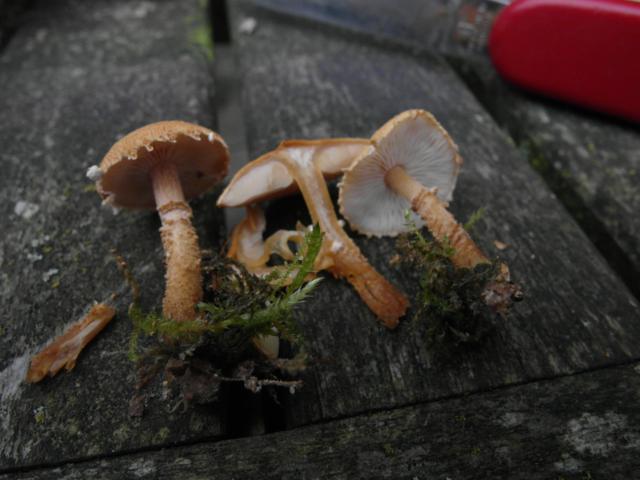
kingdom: Fungi
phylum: Basidiomycota
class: Agaricomycetes
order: Agaricales
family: Tricholomataceae
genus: Cystoderma
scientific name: Cystoderma amianthinum
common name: okkergul grynhat
